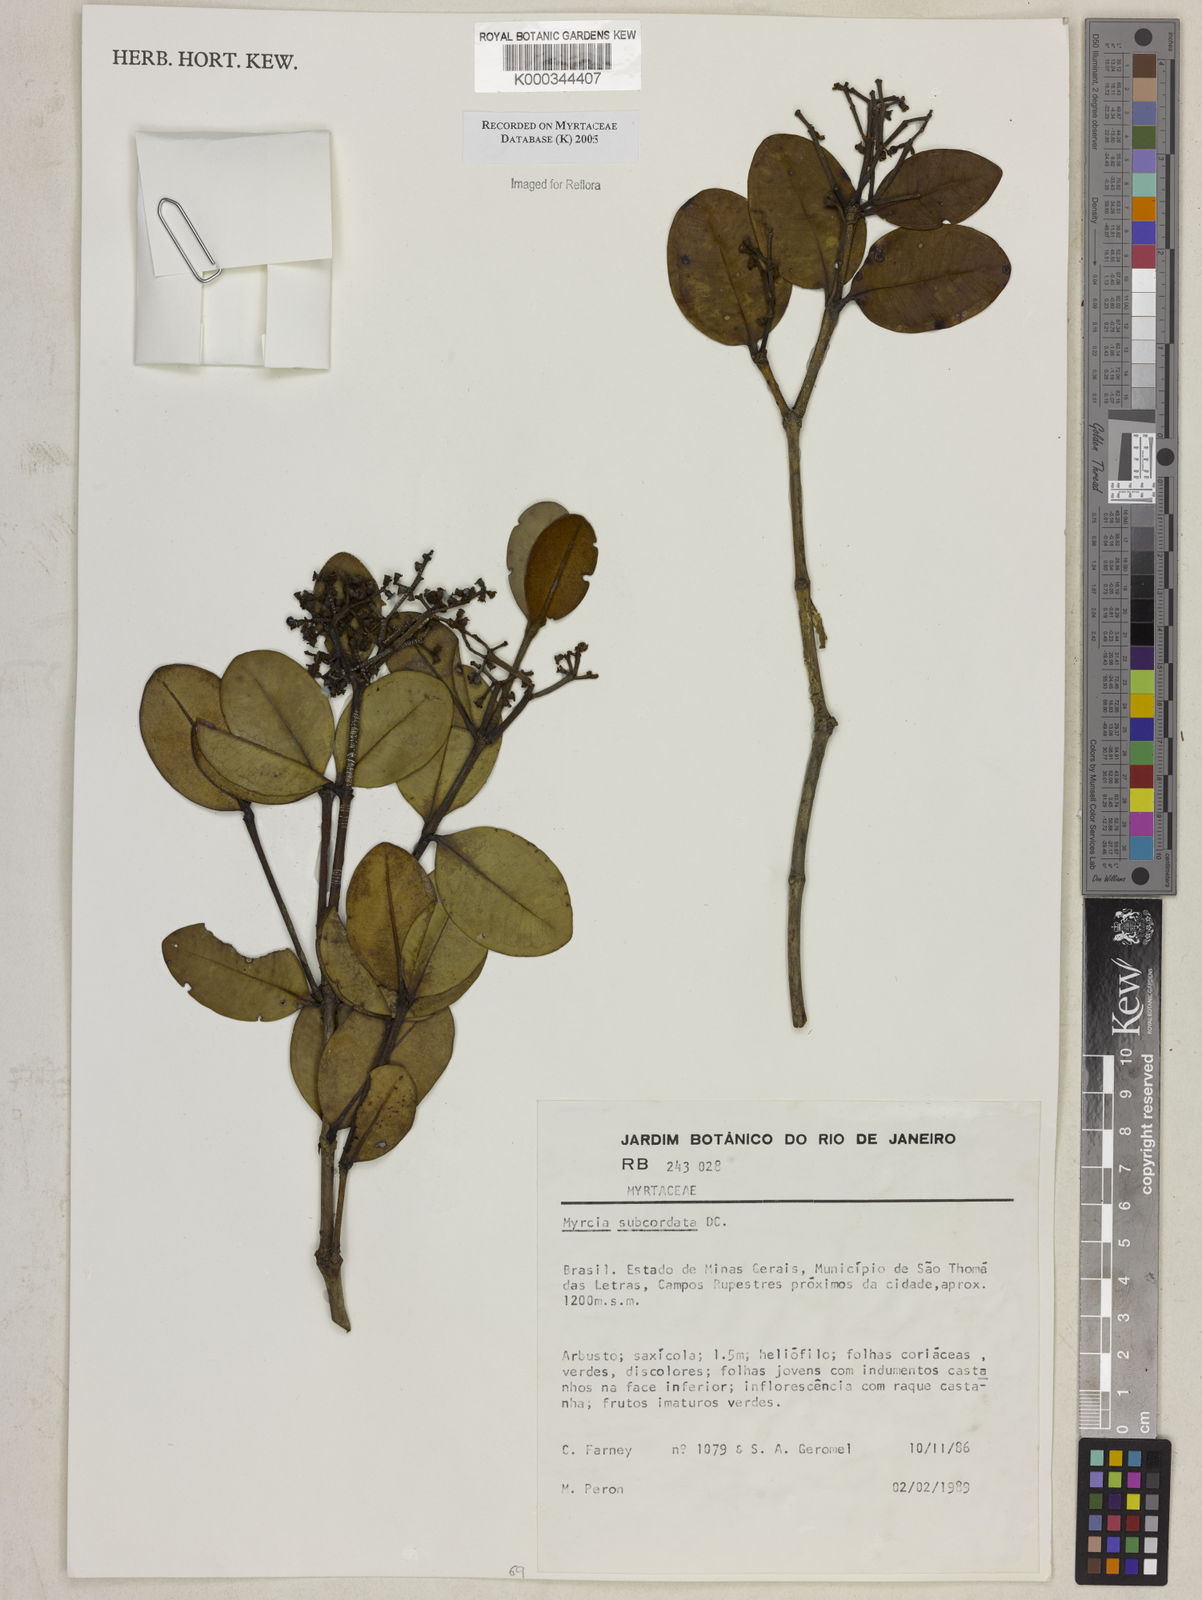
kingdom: Plantae
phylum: Tracheophyta
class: Magnoliopsida
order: Myrtales
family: Myrtaceae
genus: Myrcia
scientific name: Myrcia subcordata
